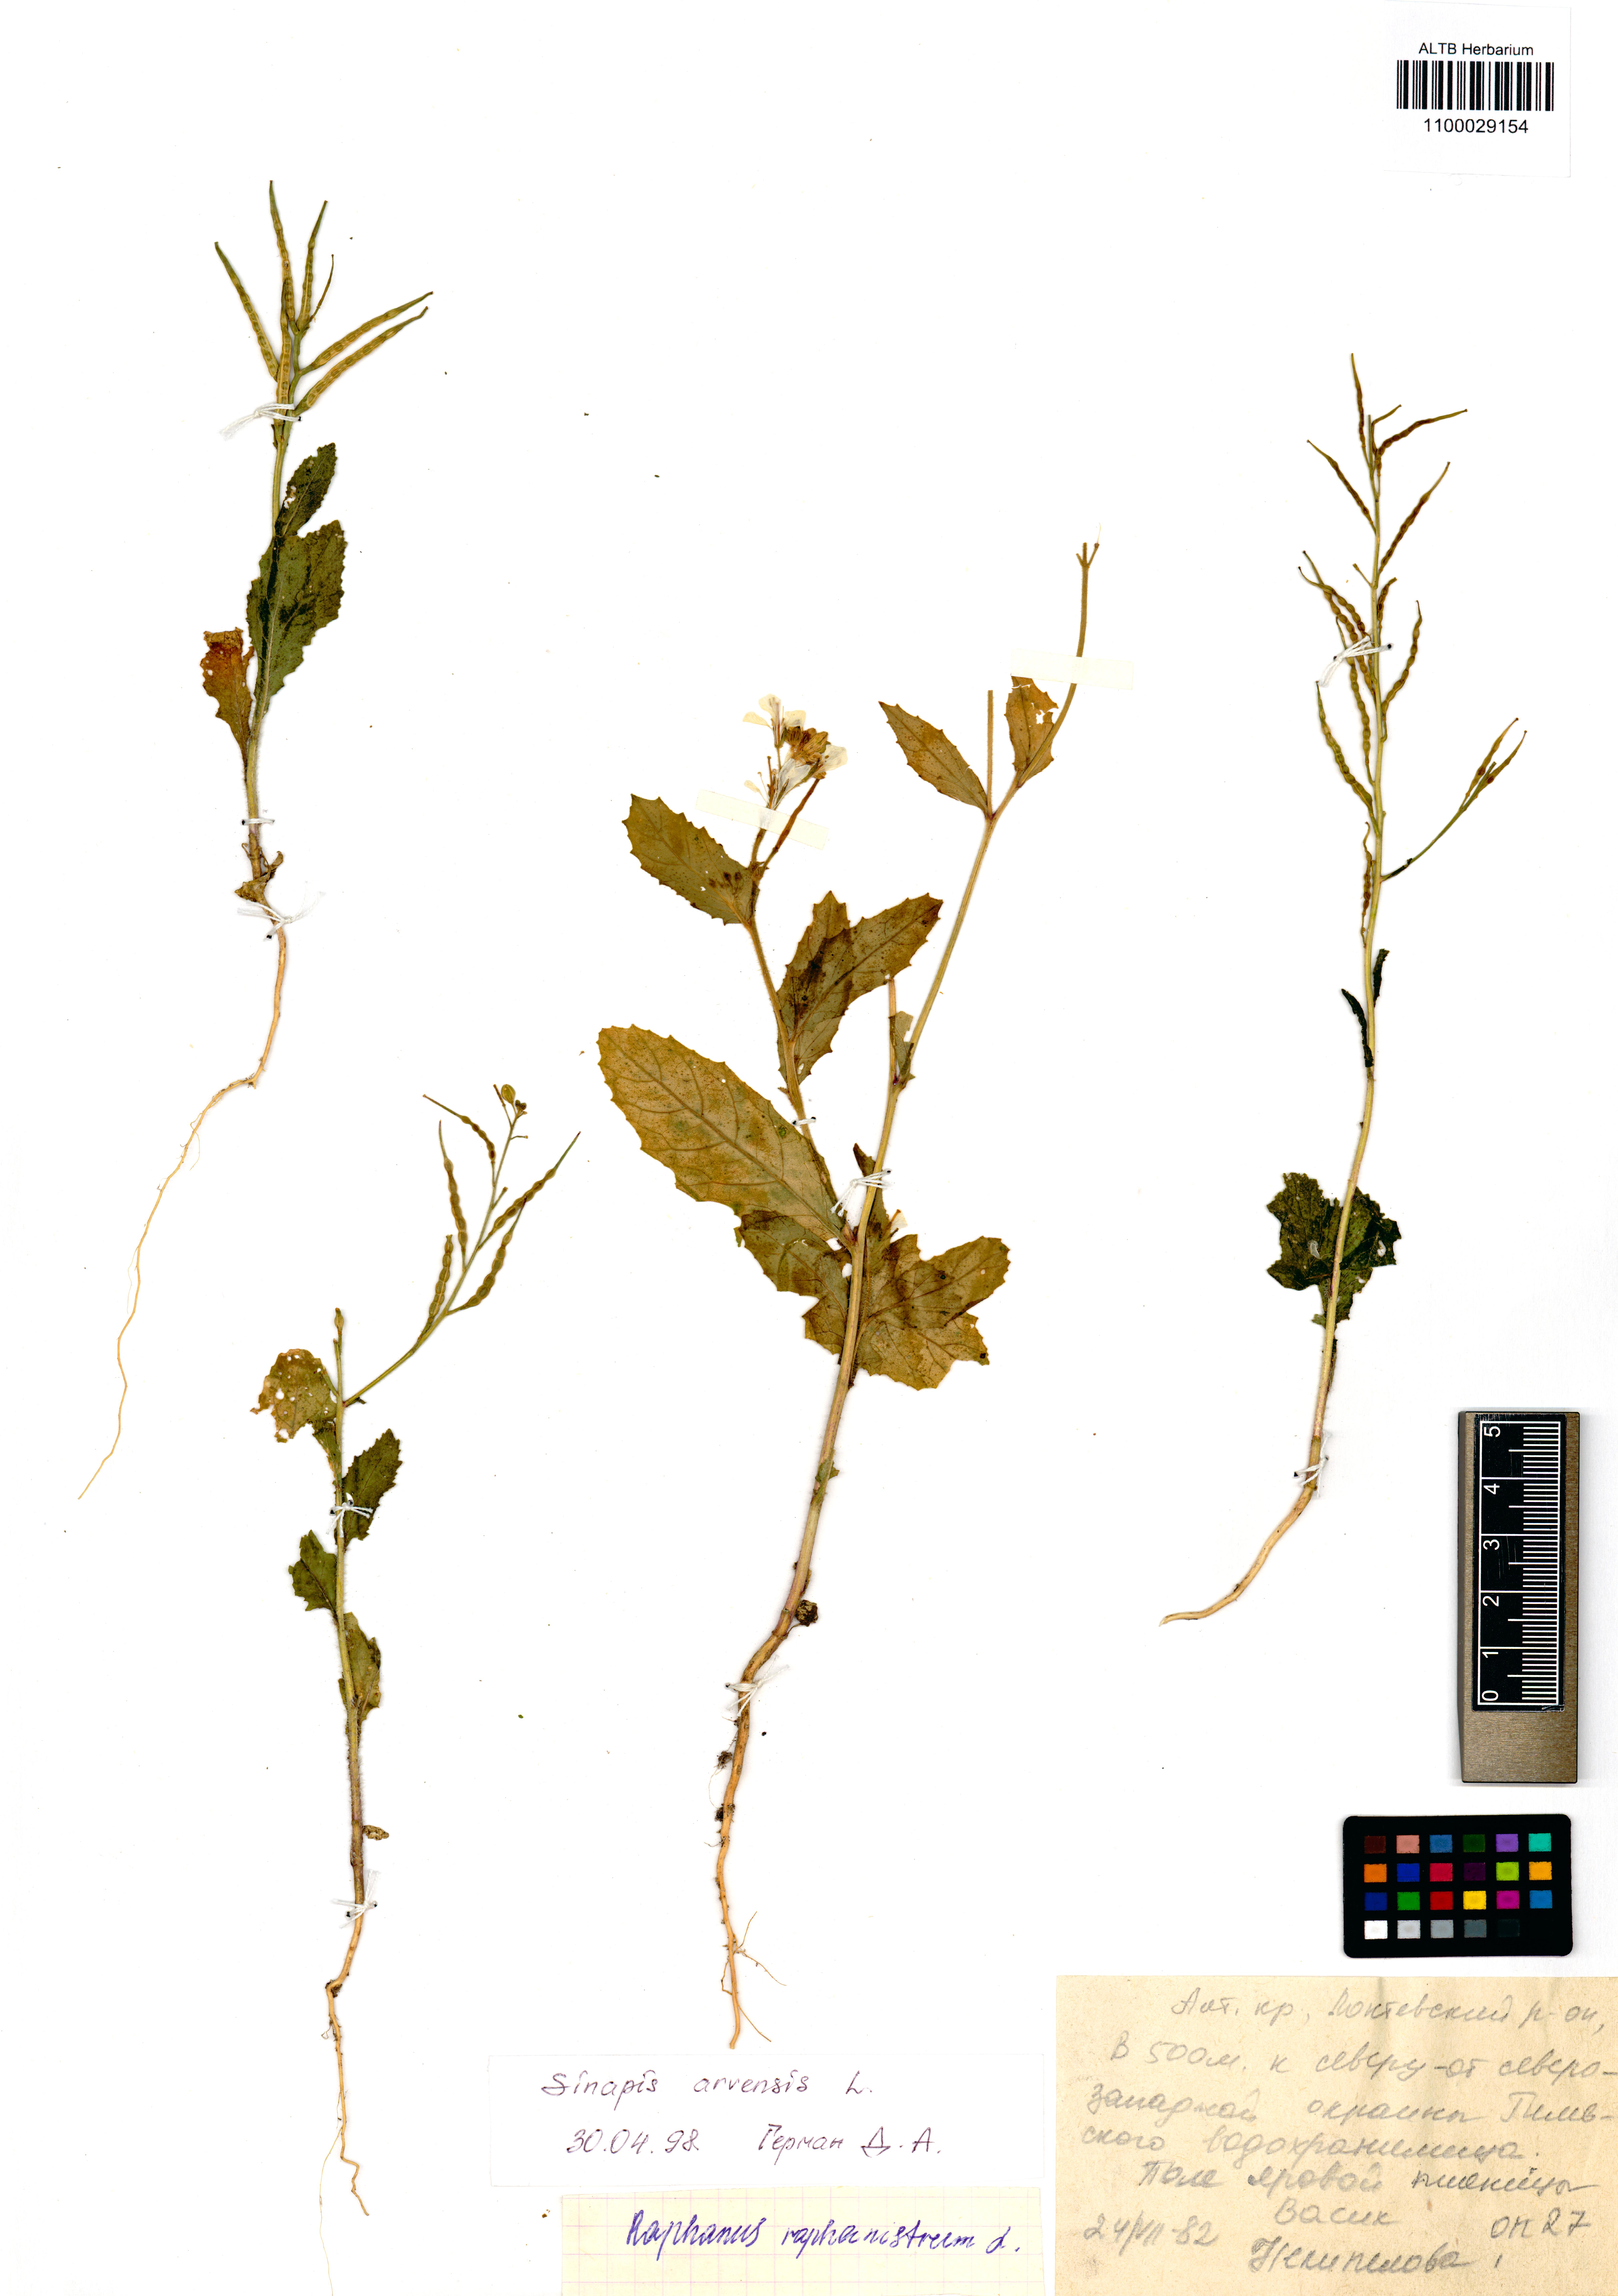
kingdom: Plantae
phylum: Tracheophyta
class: Magnoliopsida
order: Brassicales
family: Brassicaceae
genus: Sinapis
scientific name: Sinapis arvensis
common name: Charlock
